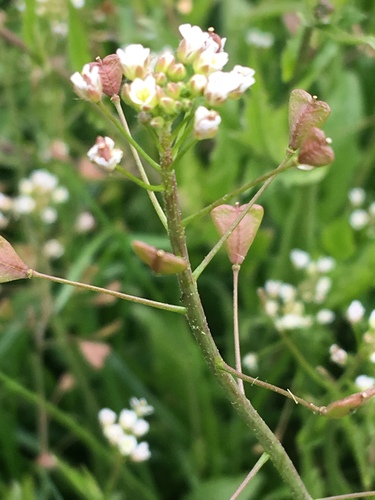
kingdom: Plantae
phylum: Tracheophyta
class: Magnoliopsida
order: Brassicales
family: Brassicaceae
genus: Capsella
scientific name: Capsella bursa-pastoris
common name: Shepherd's purse
